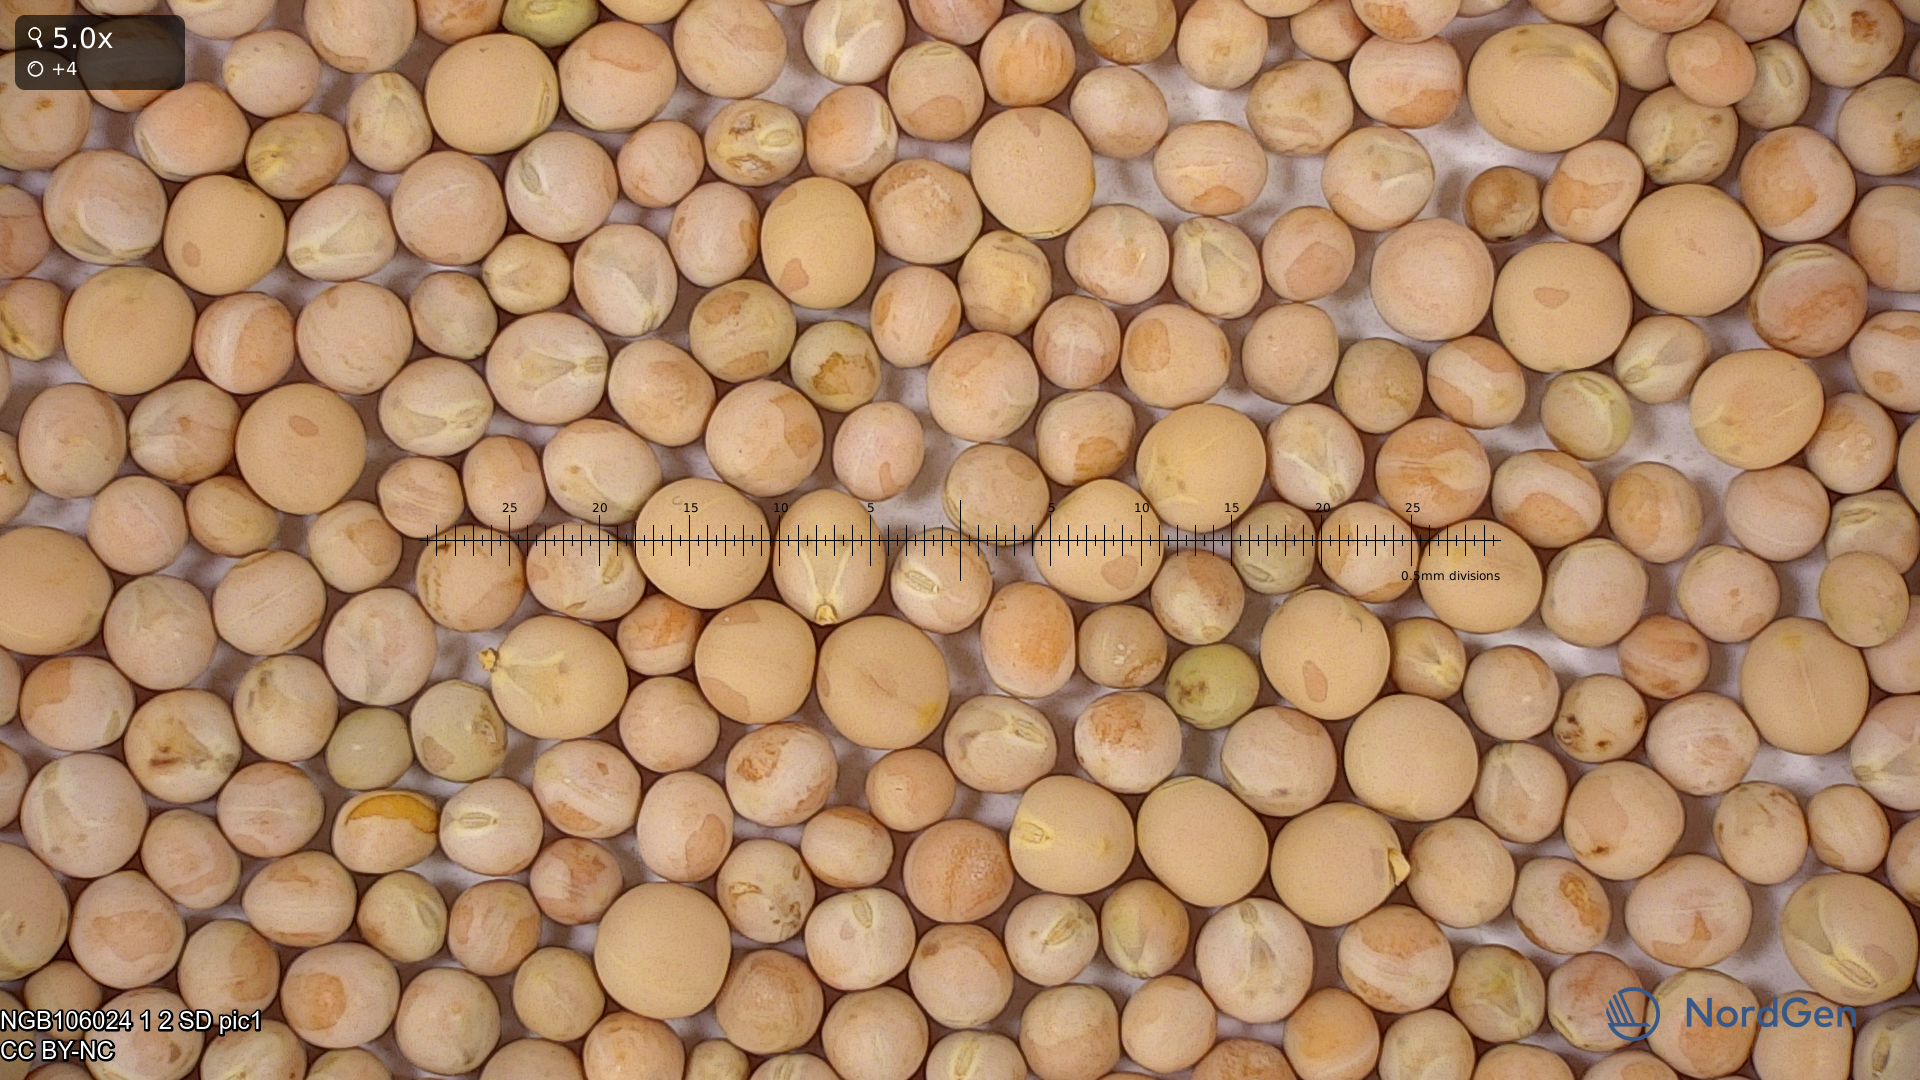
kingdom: Plantae
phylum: Tracheophyta
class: Magnoliopsida
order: Fabales
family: Fabaceae
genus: Lathyrus
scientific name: Lathyrus oleraceus
